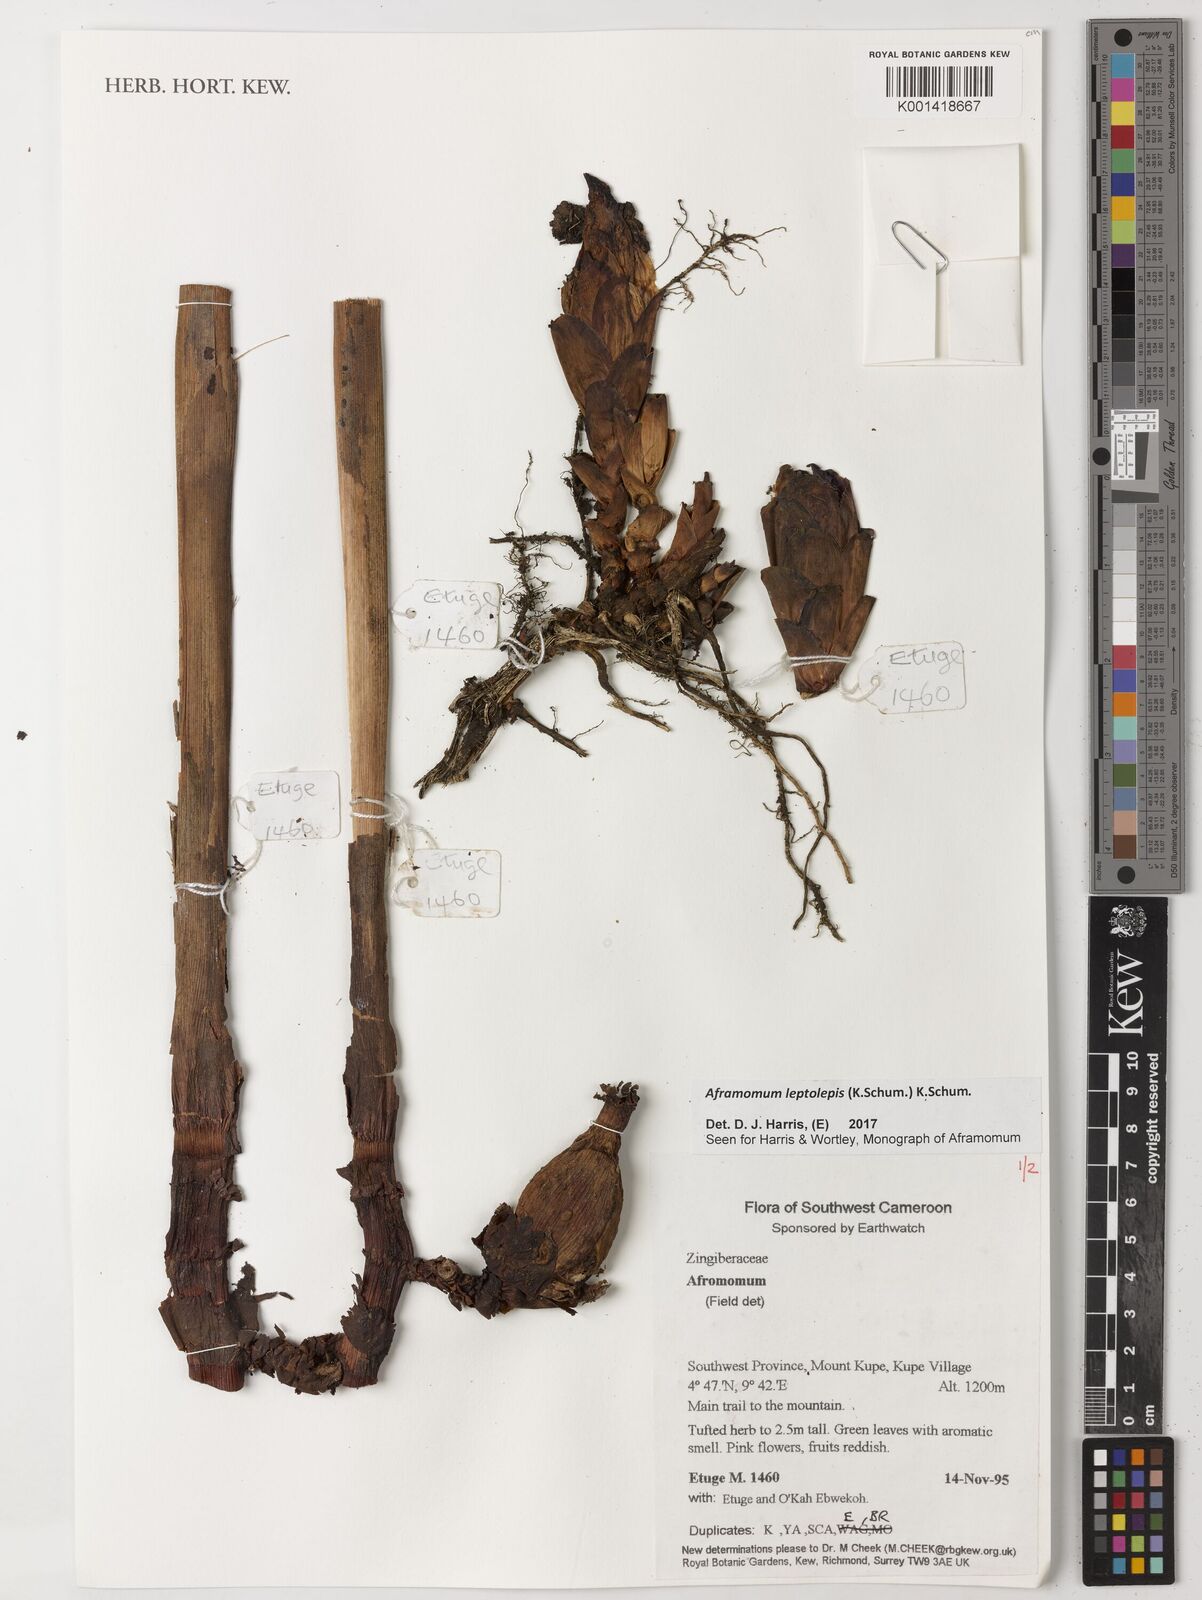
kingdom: Plantae
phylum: Tracheophyta
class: Liliopsida
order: Zingiberales
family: Zingiberaceae
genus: Aframomum
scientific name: Aframomum leptolepis
